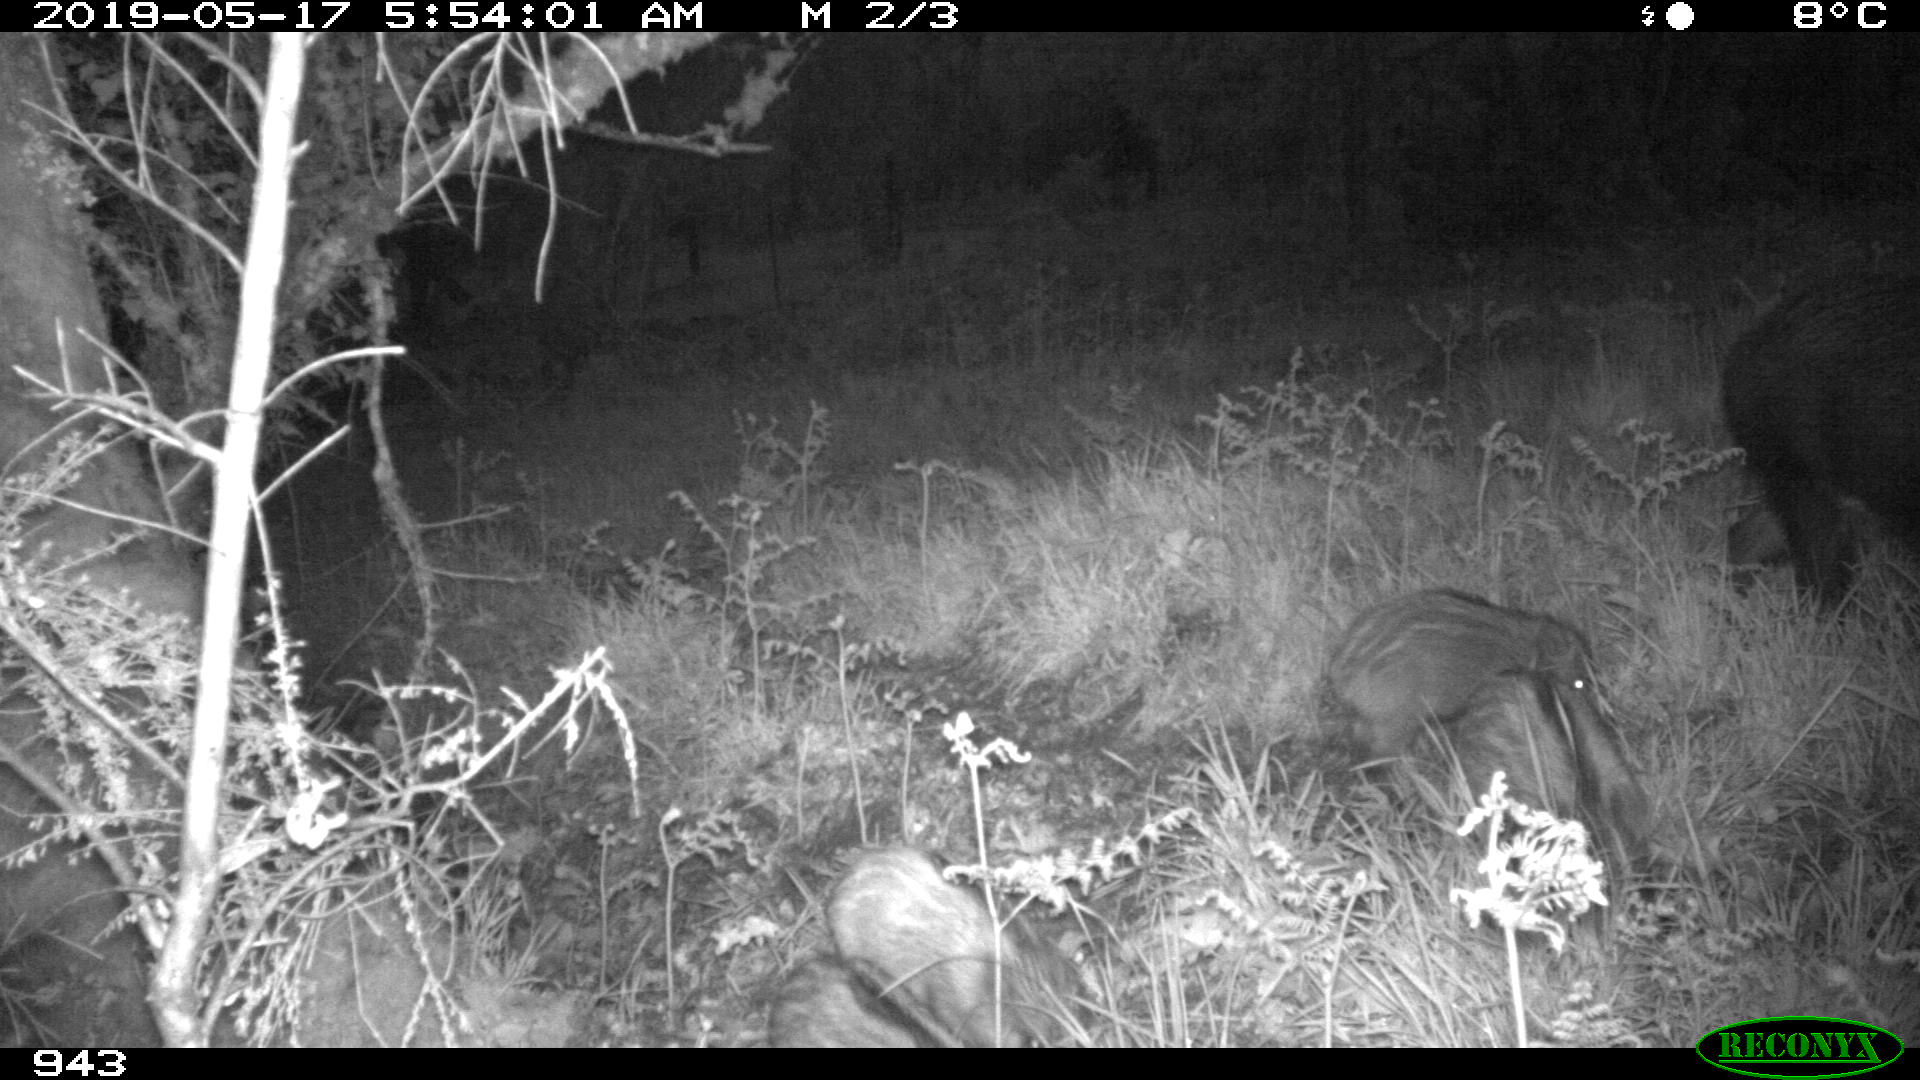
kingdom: Animalia
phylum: Chordata
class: Mammalia
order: Artiodactyla
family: Suidae
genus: Sus
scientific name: Sus scrofa
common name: Wild boar
